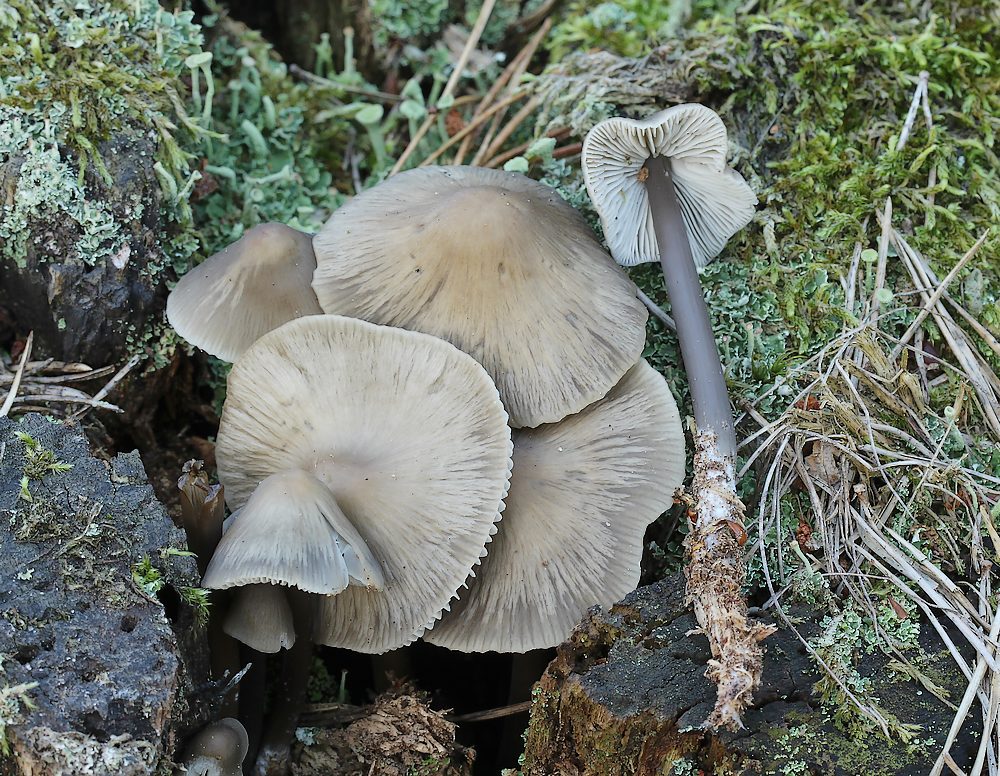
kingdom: Fungi
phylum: Basidiomycota
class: Agaricomycetes
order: Agaricales
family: Mycenaceae
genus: Mycena
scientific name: Mycena galericulata
